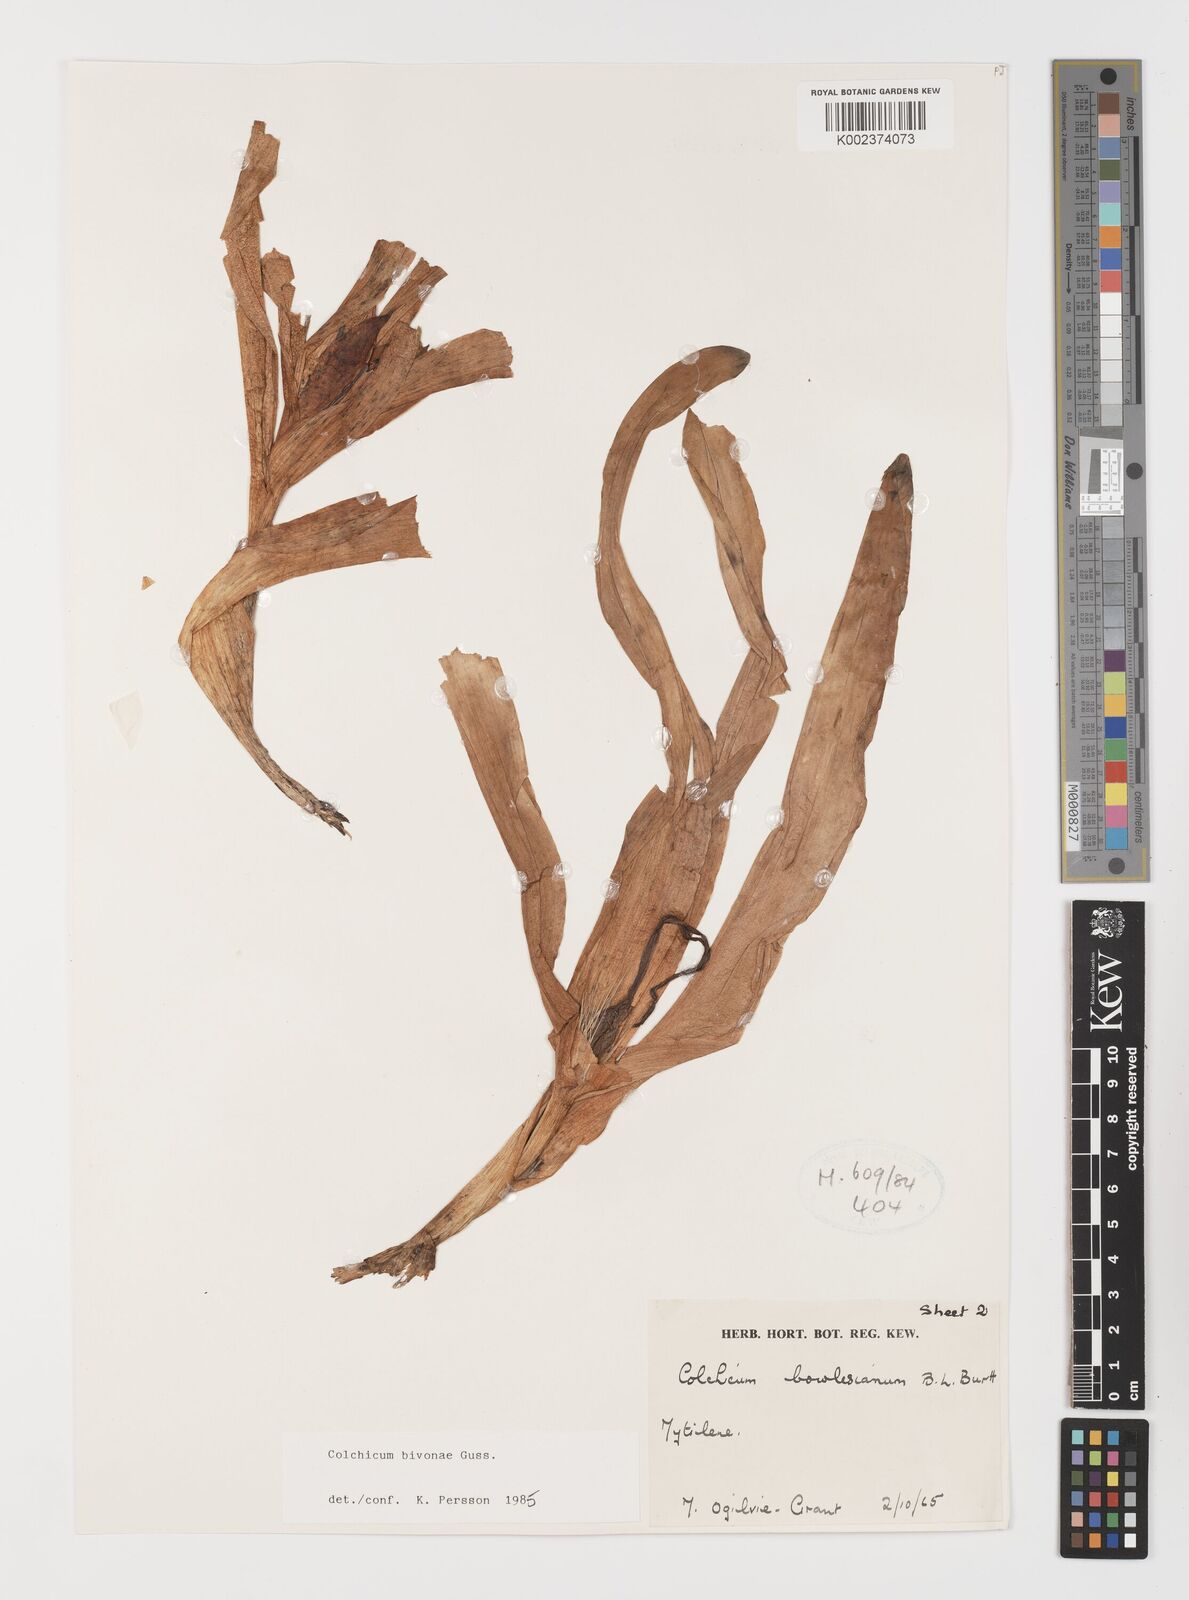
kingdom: Plantae
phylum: Tracheophyta
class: Liliopsida
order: Liliales
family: Colchicaceae
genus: Colchicum
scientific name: Colchicum bivonae
